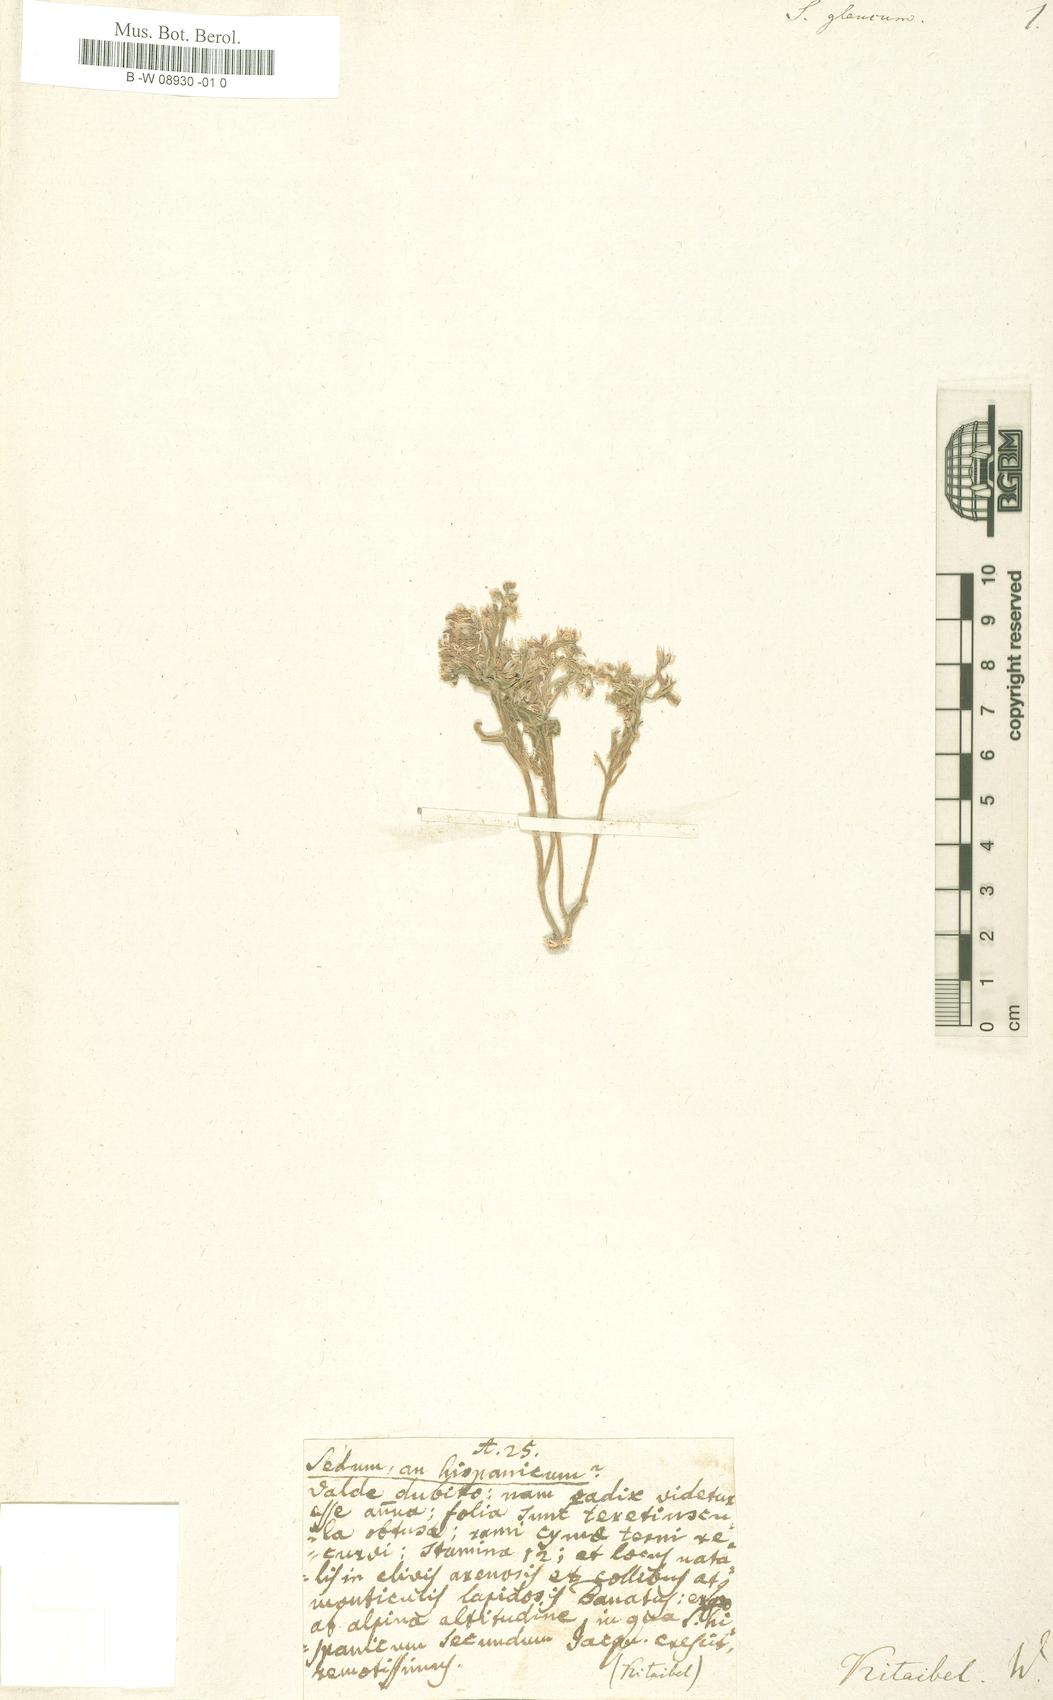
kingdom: Plantae
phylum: Tracheophyta
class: Magnoliopsida
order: Saxifragales
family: Crassulaceae
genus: Sedum
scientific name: Sedum glaucum
